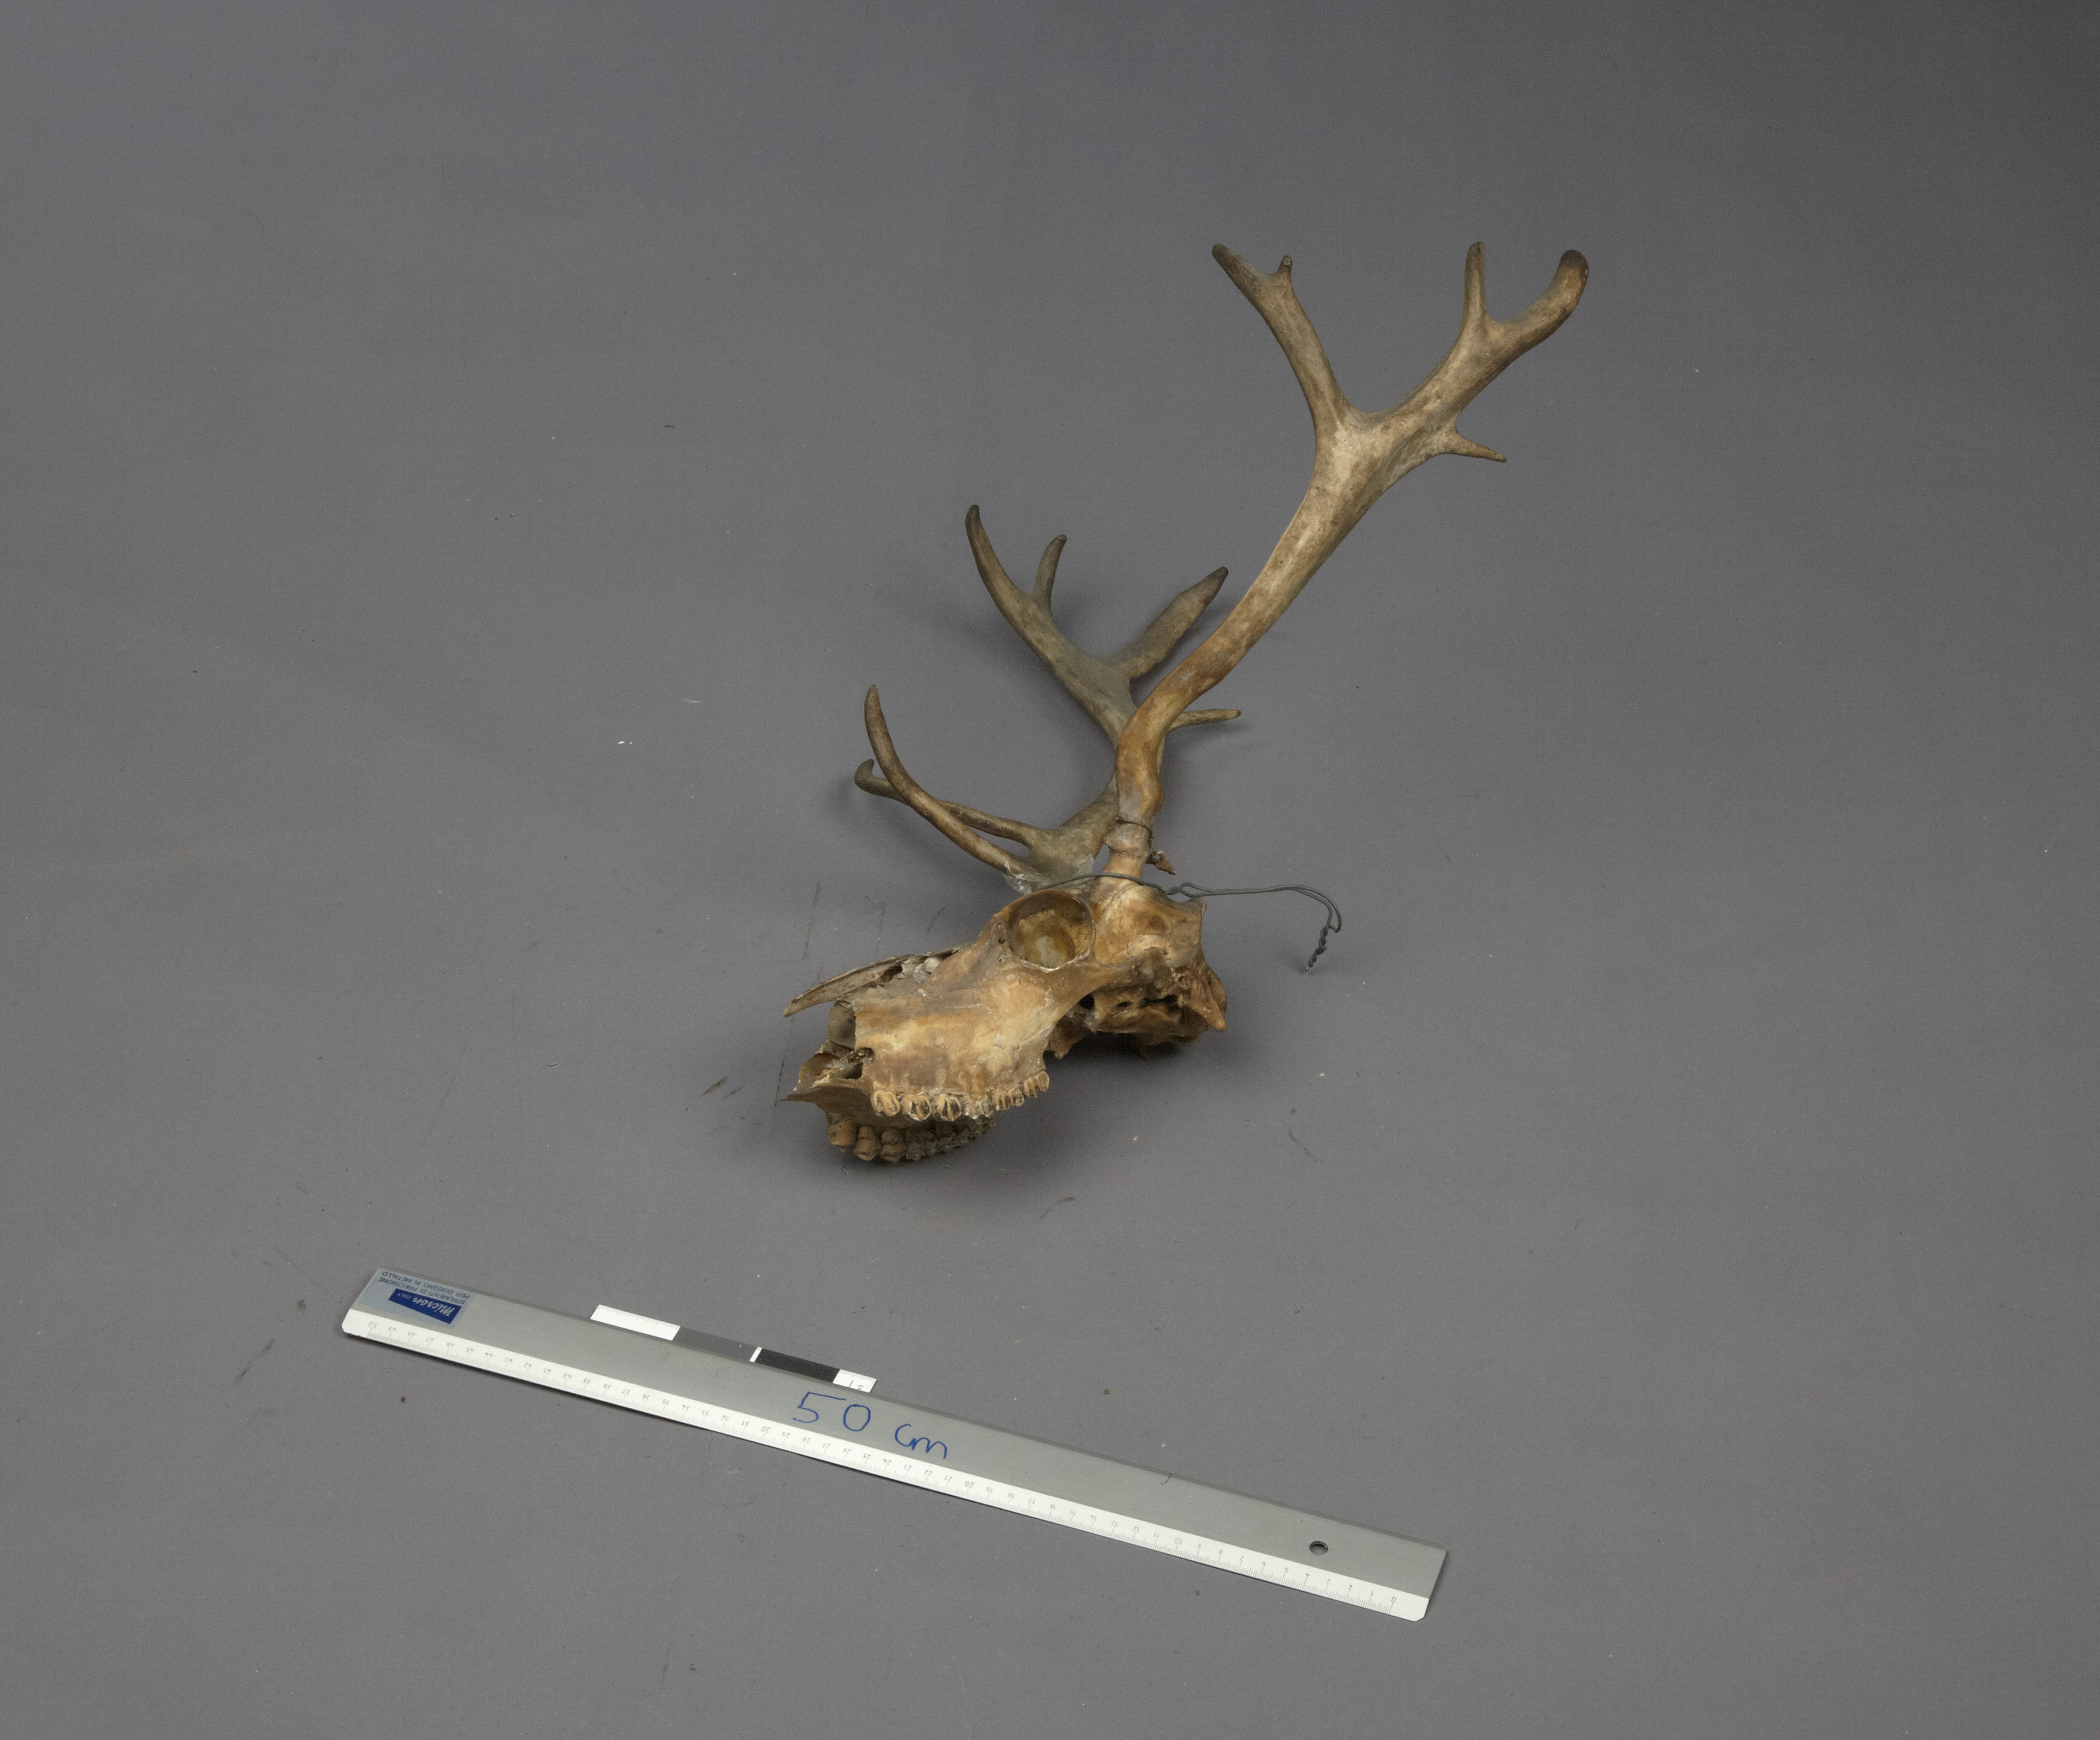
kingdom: Animalia
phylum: Chordata
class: Mammalia
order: Artiodactyla
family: Cervidae
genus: Rangifer
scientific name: Rangifer tarandus
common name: Reindeer
